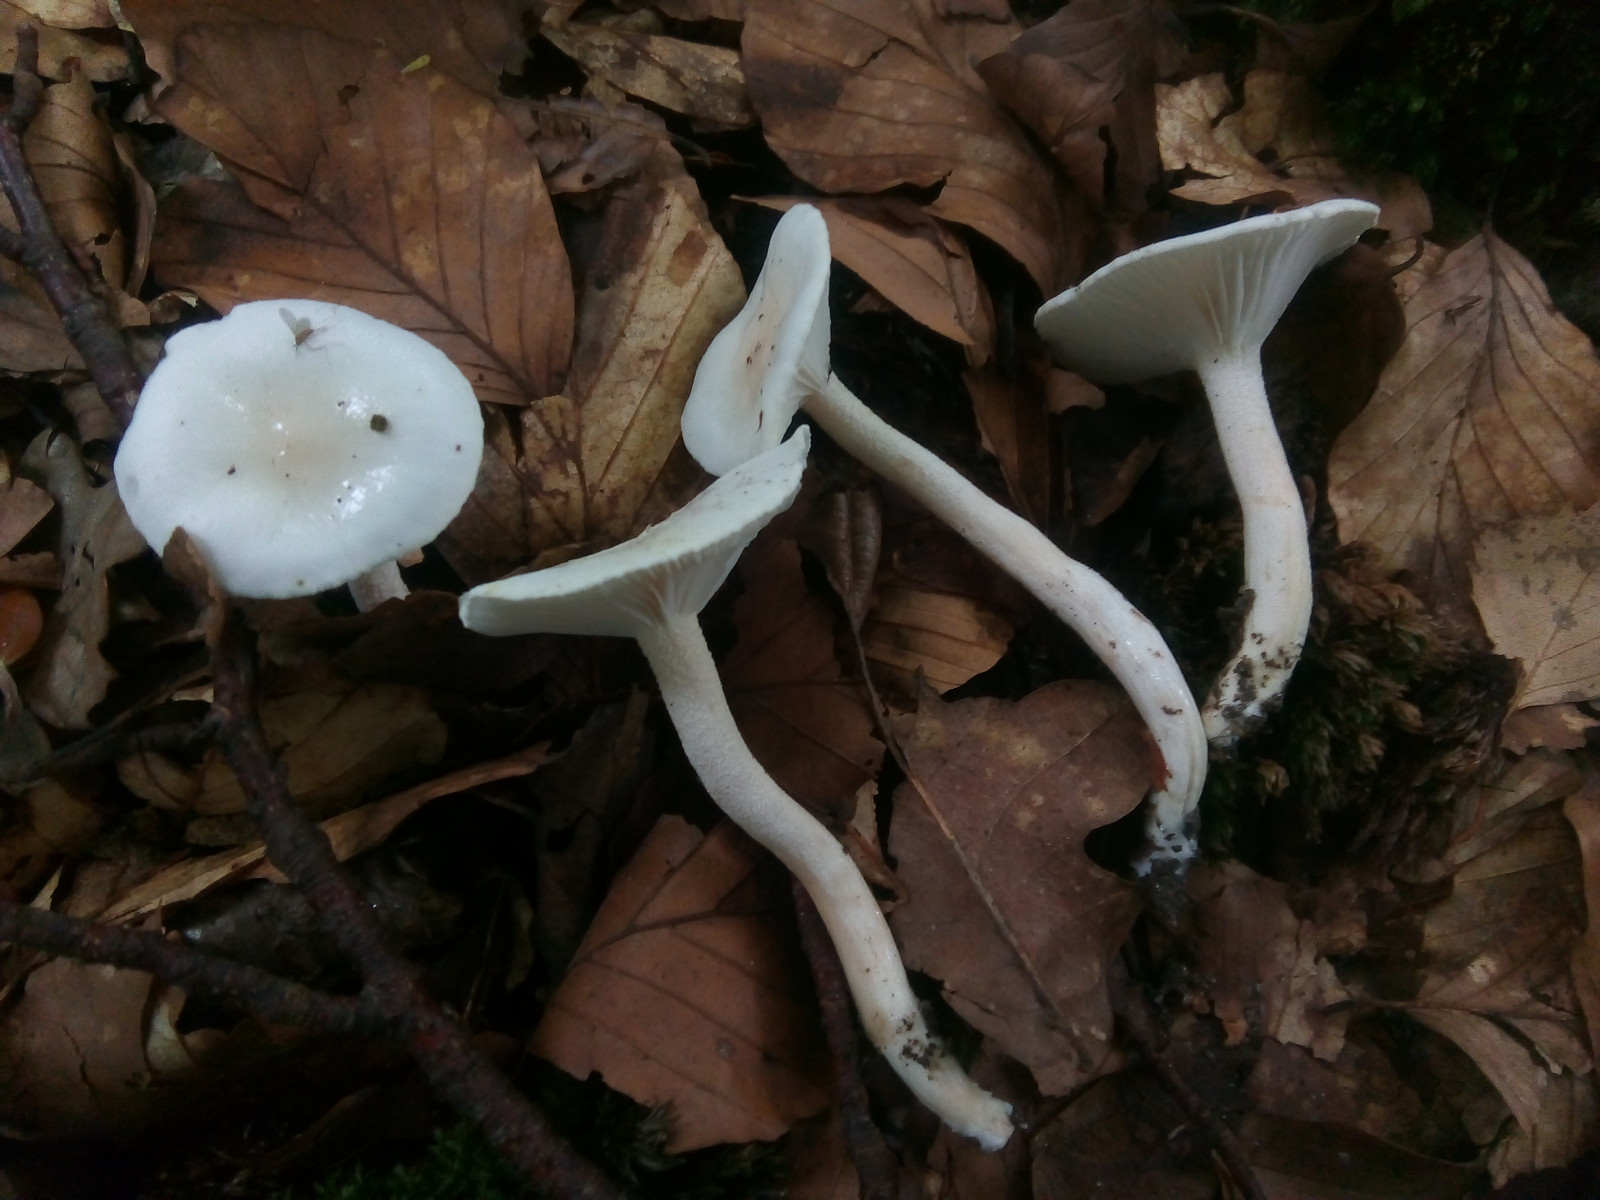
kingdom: Fungi
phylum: Basidiomycota
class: Agaricomycetes
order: Agaricales
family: Hygrophoraceae
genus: Hygrophorus
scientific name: Hygrophorus eburneus
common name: elfenbens-sneglehat
